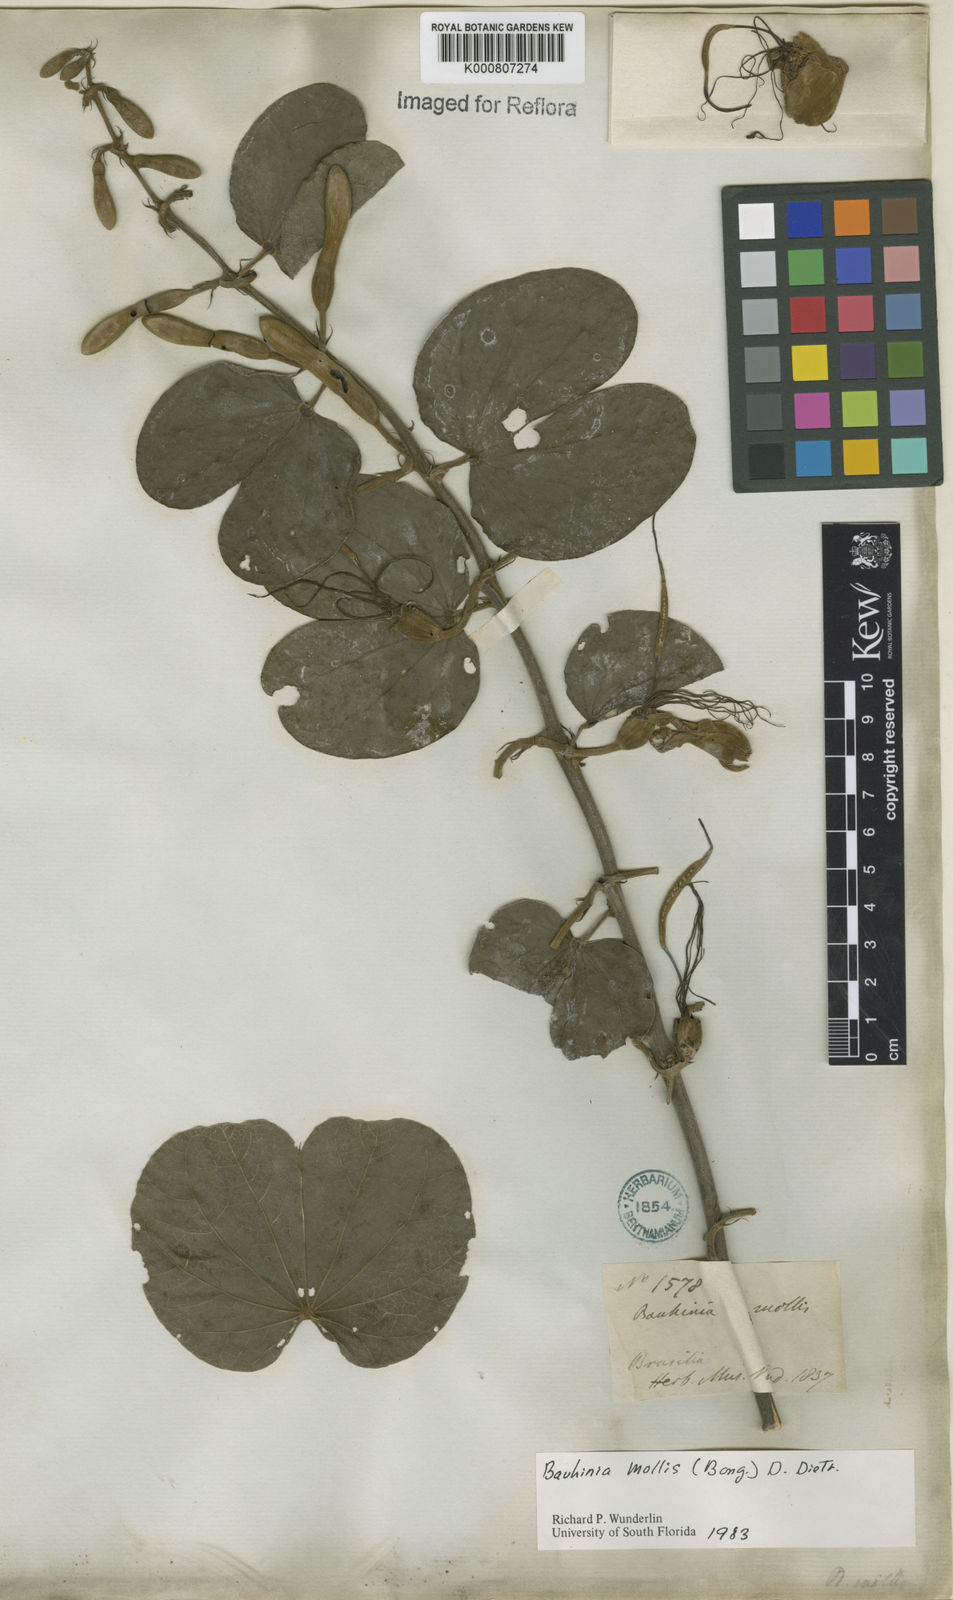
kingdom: Plantae
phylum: Tracheophyta
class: Magnoliopsida
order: Fabales
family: Fabaceae
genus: Bauhinia
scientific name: Bauhinia mollis
